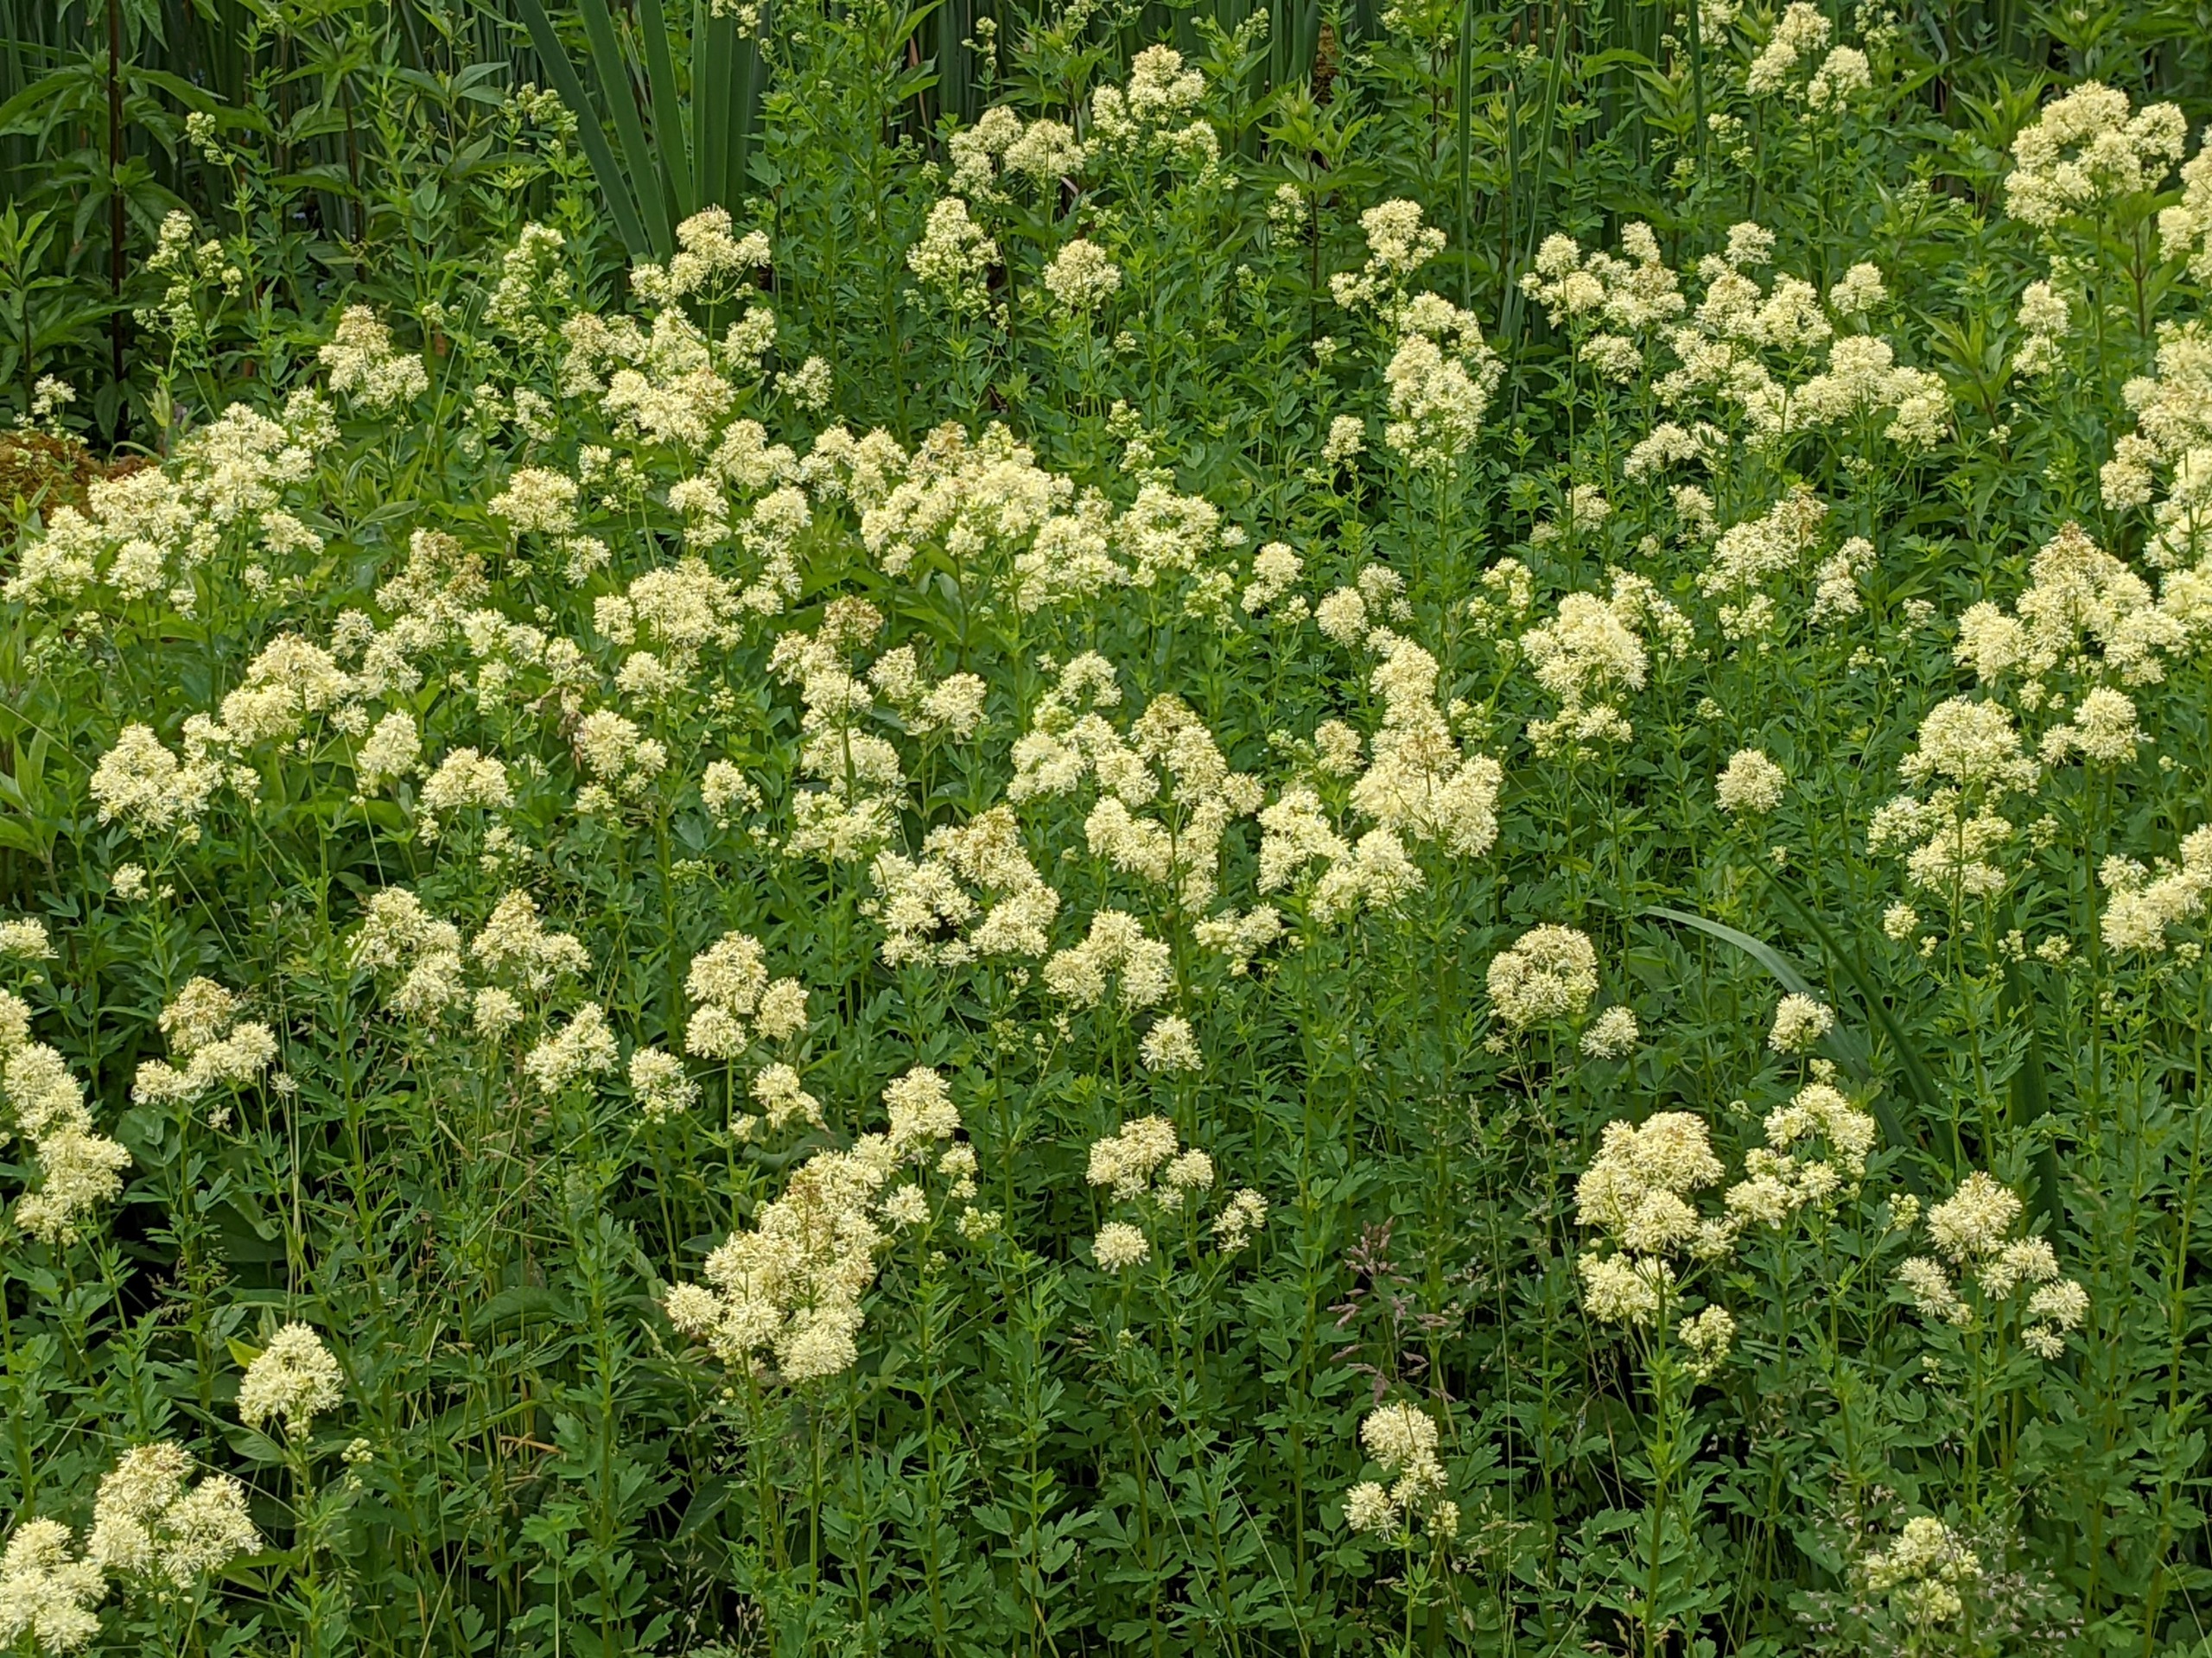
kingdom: Plantae
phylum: Tracheophyta
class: Magnoliopsida
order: Ranunculales
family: Ranunculaceae
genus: Thalictrum
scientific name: Thalictrum flavum
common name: Gul frøstjerne
